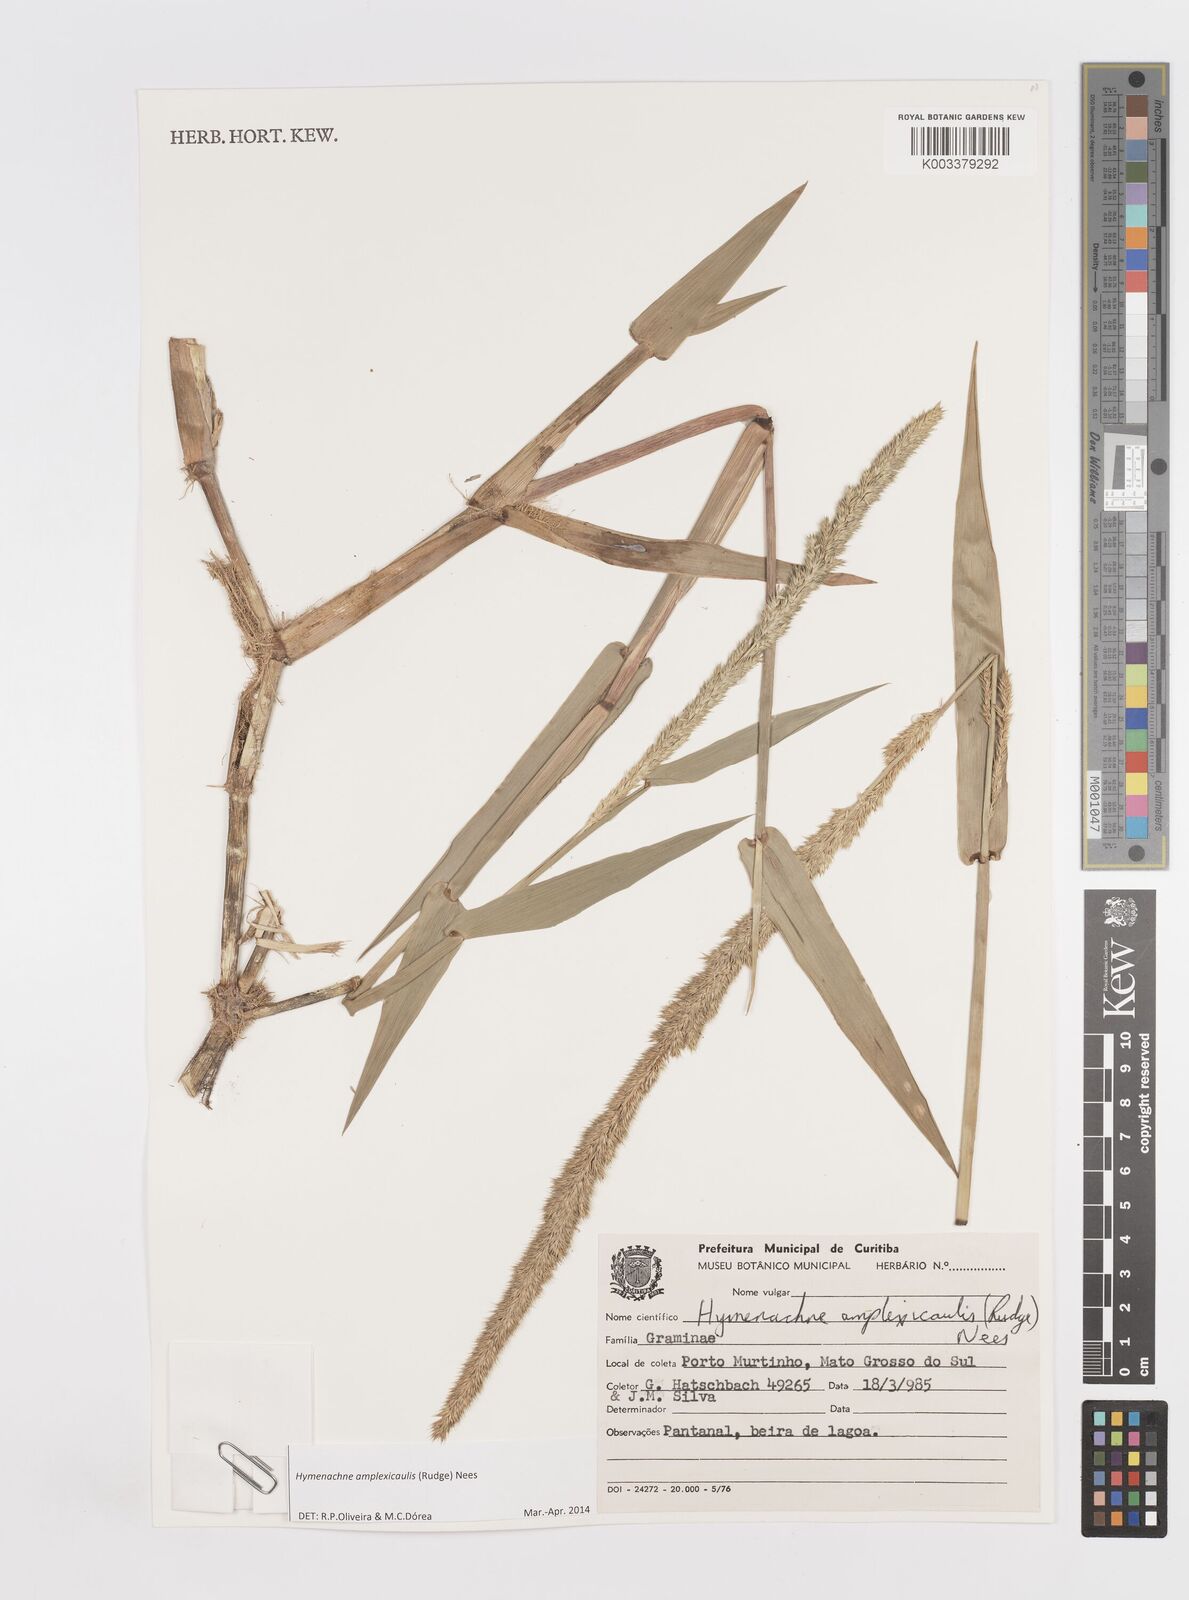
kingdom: Plantae
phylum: Tracheophyta
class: Liliopsida
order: Poales
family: Poaceae
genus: Hymenachne
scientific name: Hymenachne amplexicaulis
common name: Olive hymenachne
